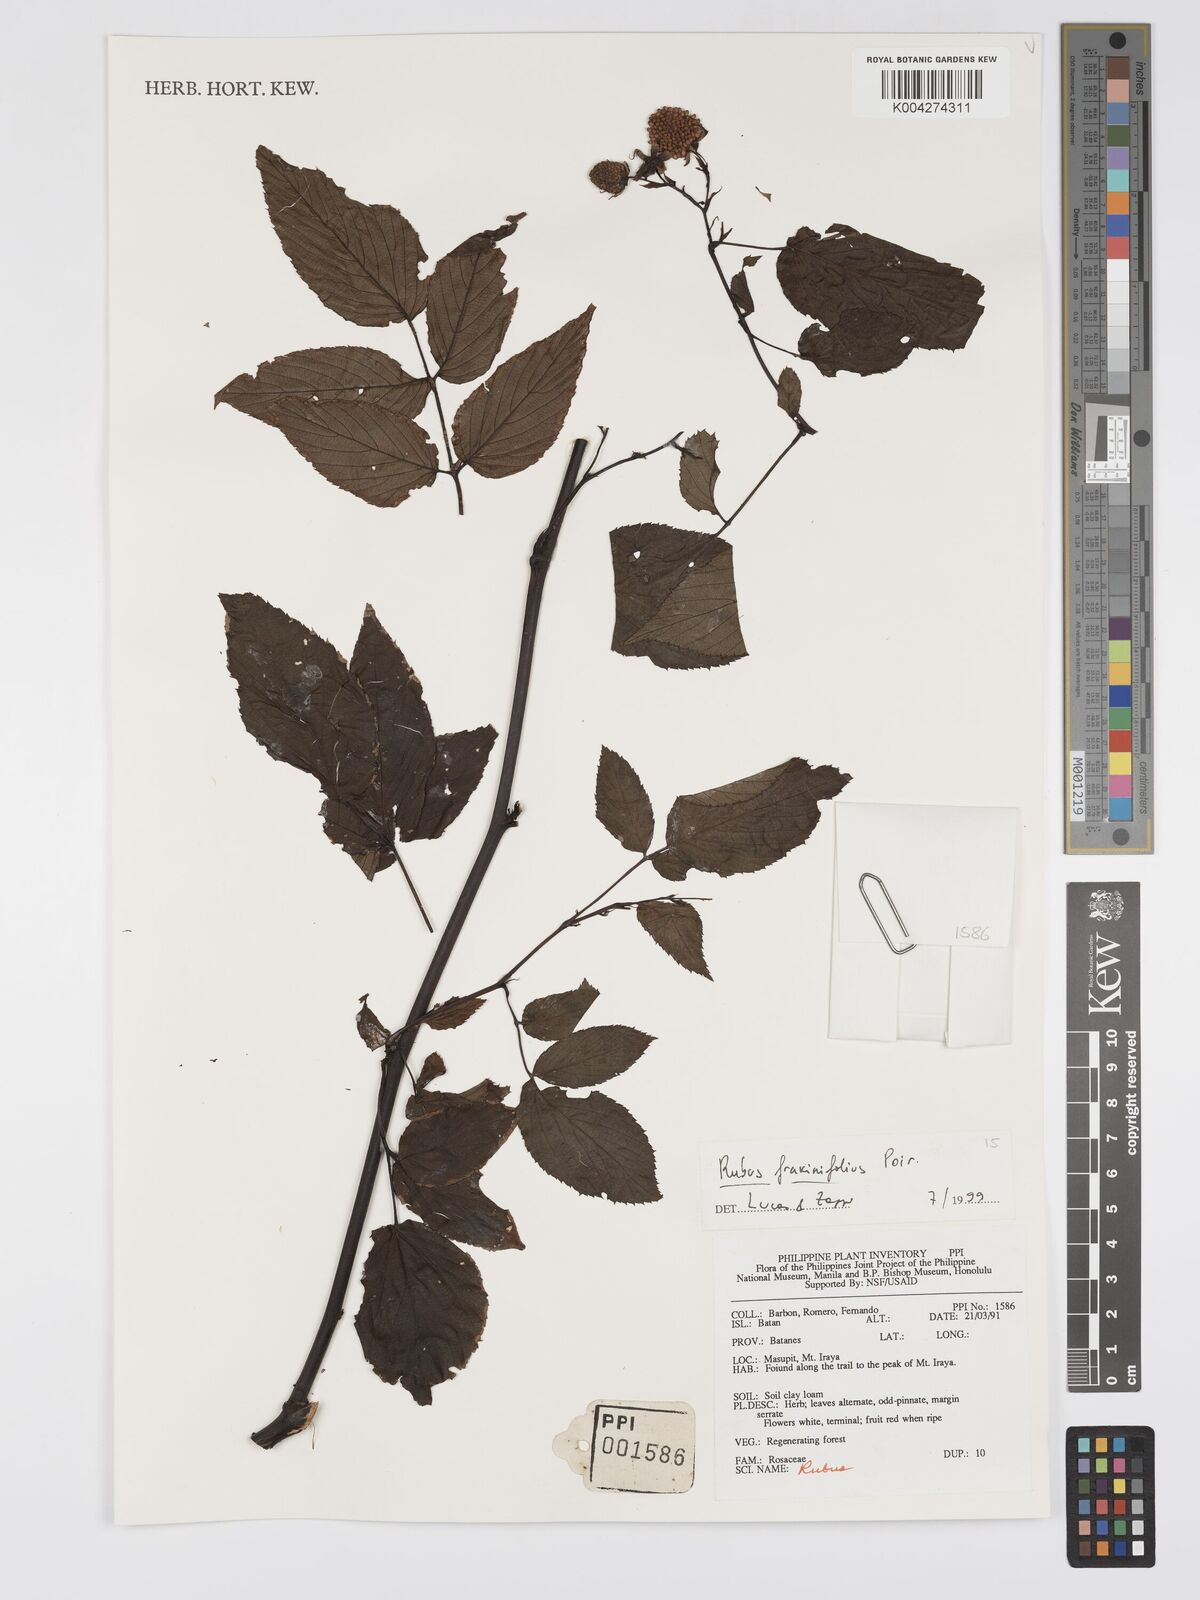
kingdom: Plantae
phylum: Tracheophyta
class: Magnoliopsida
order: Rosales
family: Rosaceae
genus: Rubus
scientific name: Rubus fraxinifolius
